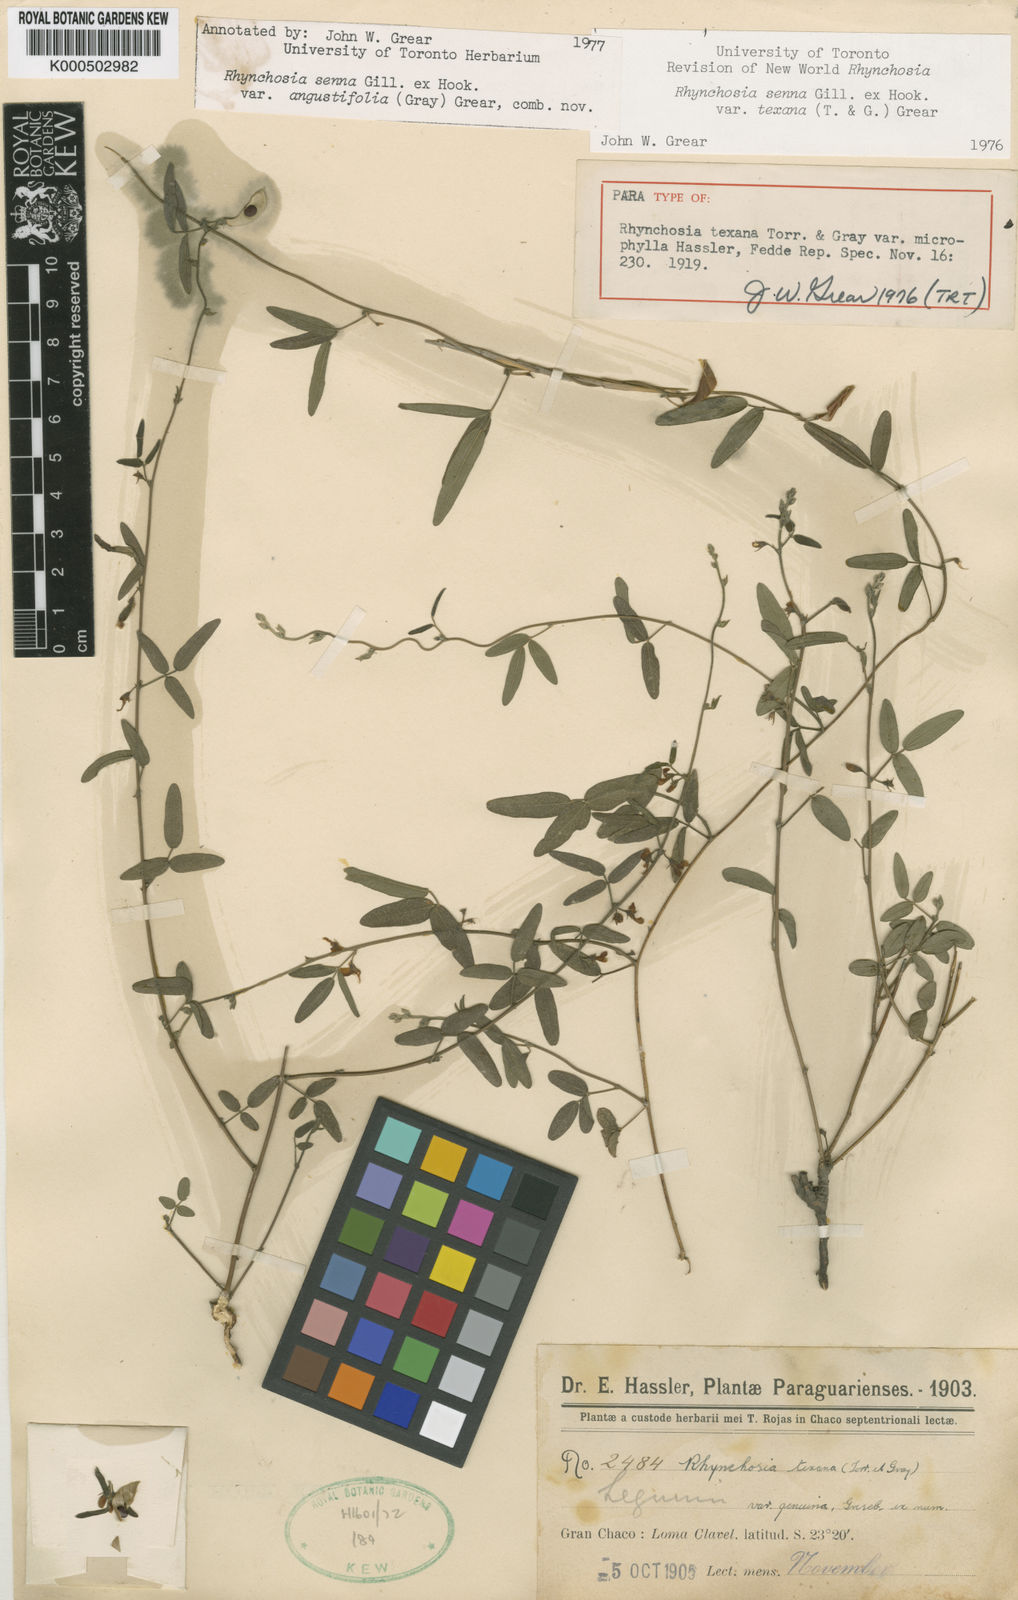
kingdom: Plantae
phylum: Tracheophyta
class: Magnoliopsida
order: Fabales
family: Fabaceae
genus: Rhynchosia
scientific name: Rhynchosia senna
